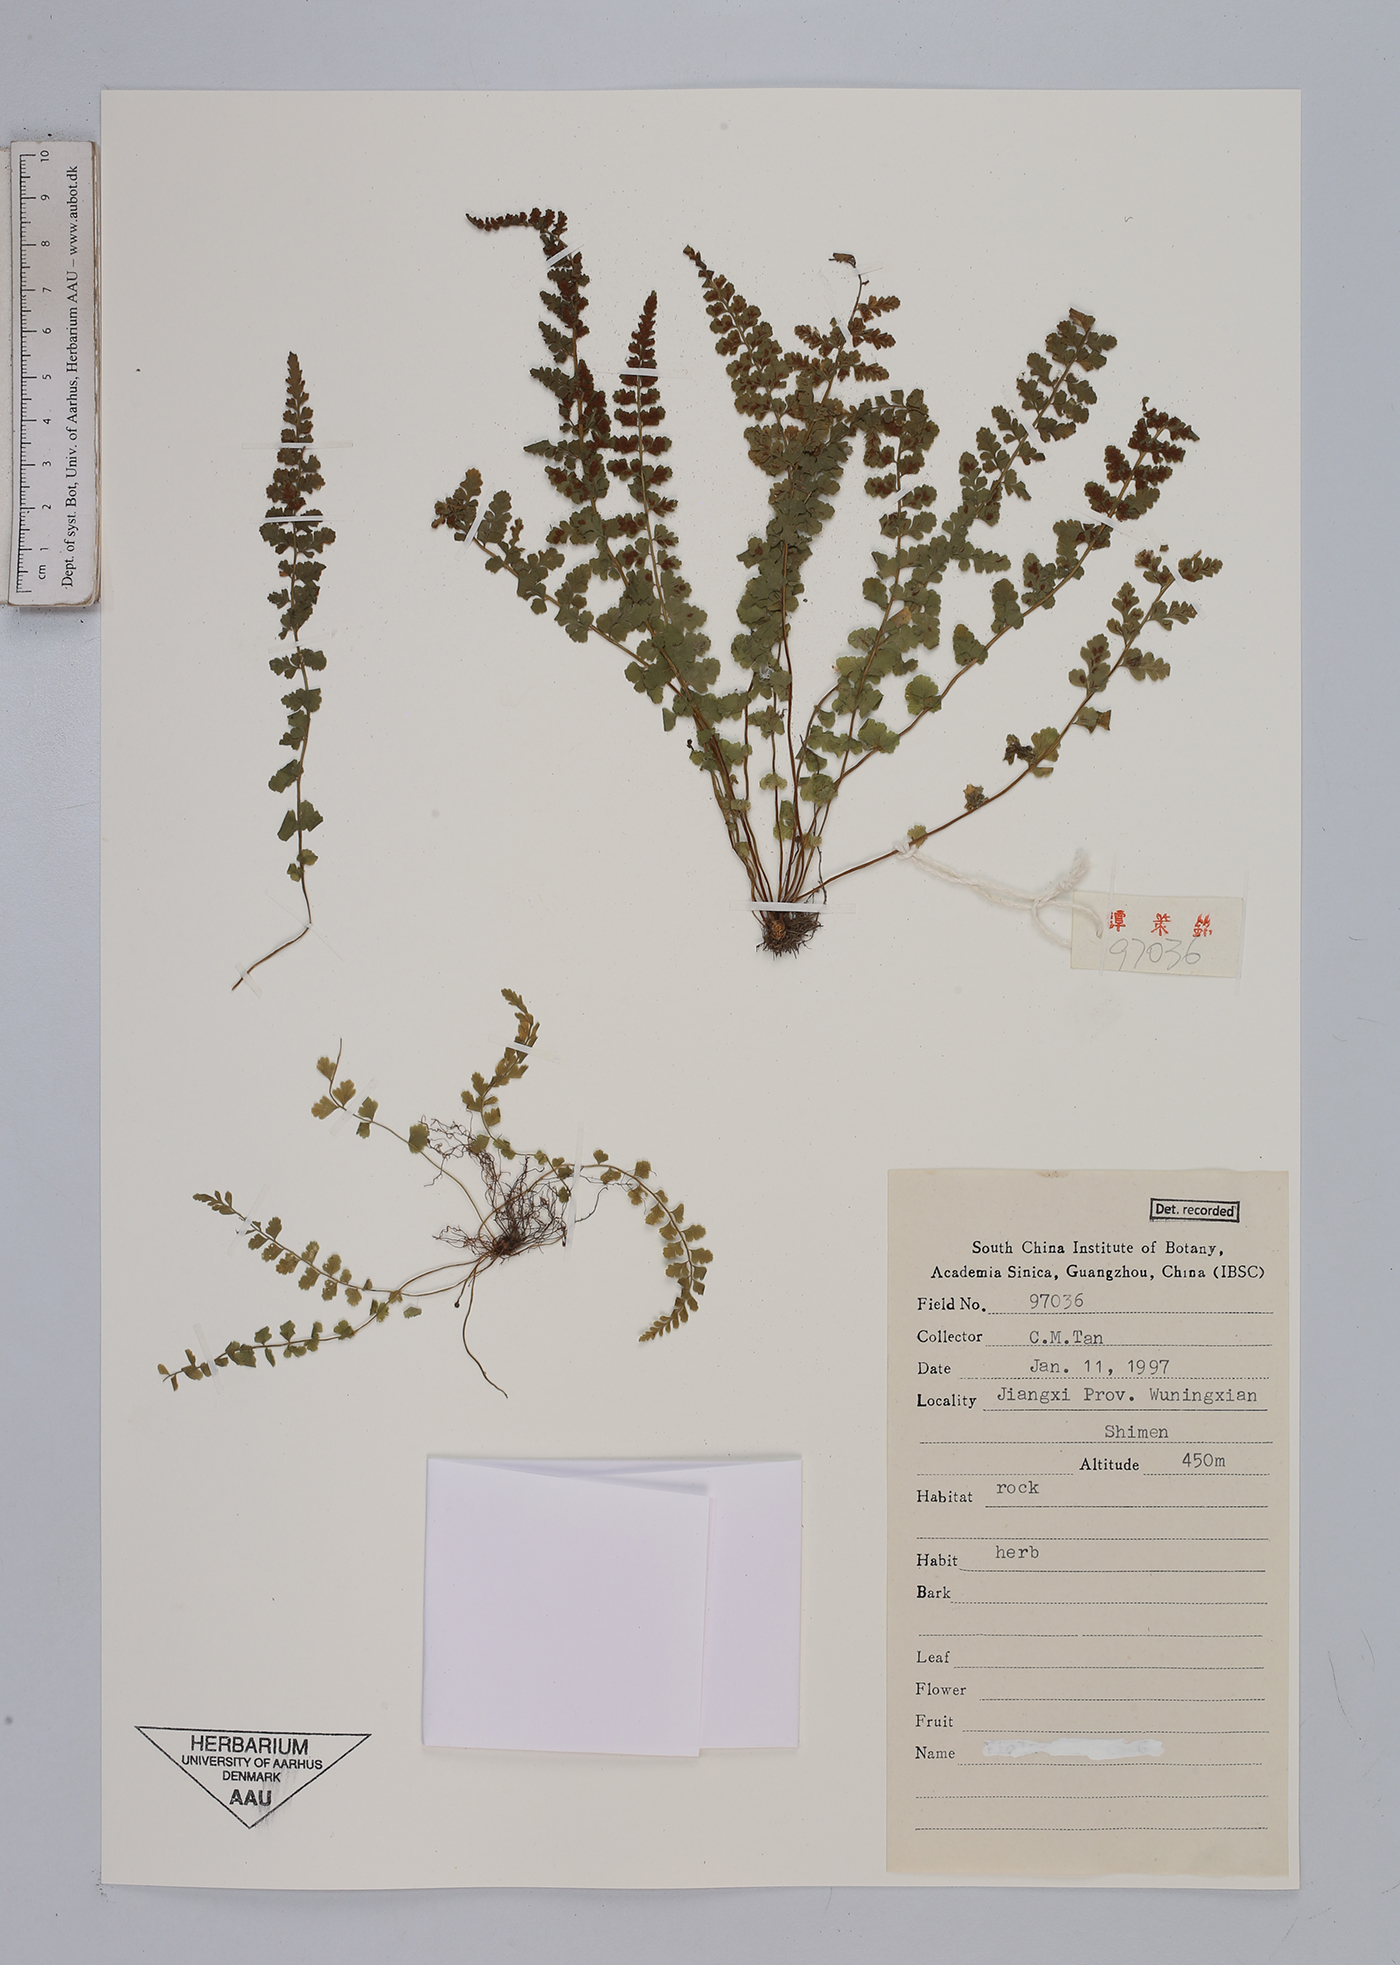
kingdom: Plantae
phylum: Tracheophyta
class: Polypodiopsida
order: Polypodiales
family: Aspleniaceae
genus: Asplenium
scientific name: Asplenium
